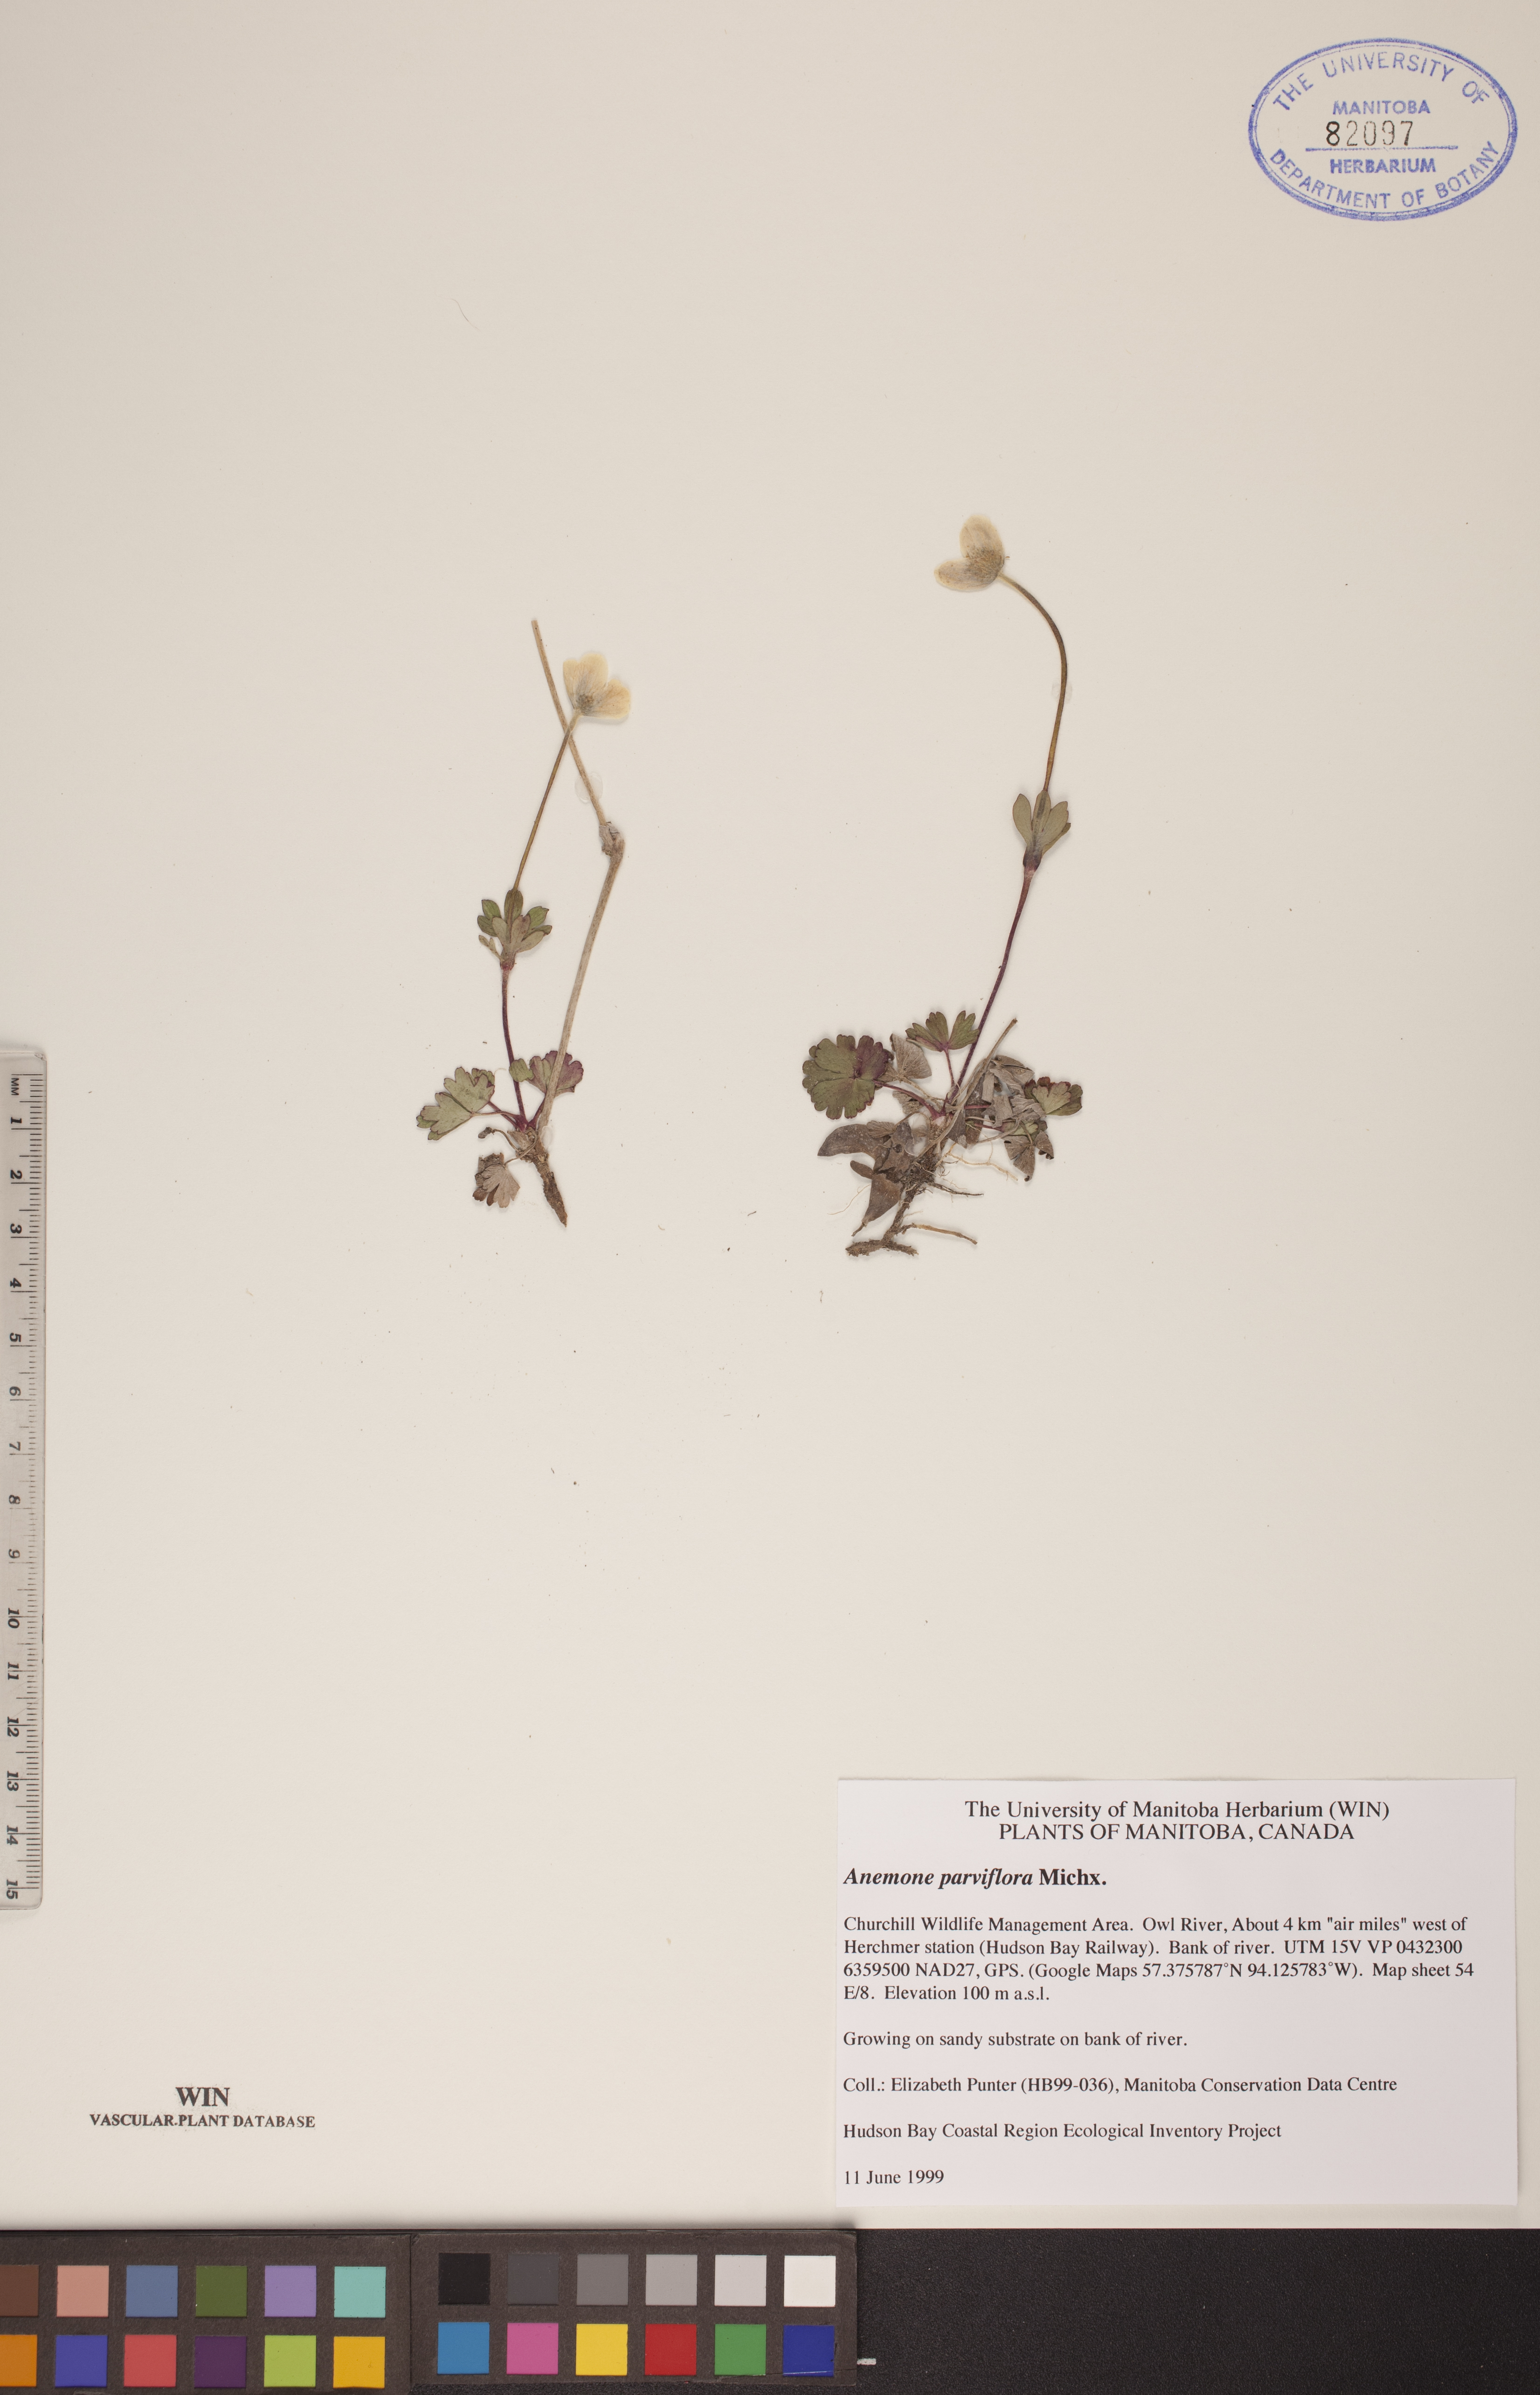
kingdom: Plantae
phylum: Tracheophyta
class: Magnoliopsida
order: Ranunculales
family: Ranunculaceae
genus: Anemone
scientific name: Anemone parviflora
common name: Northern anemone
